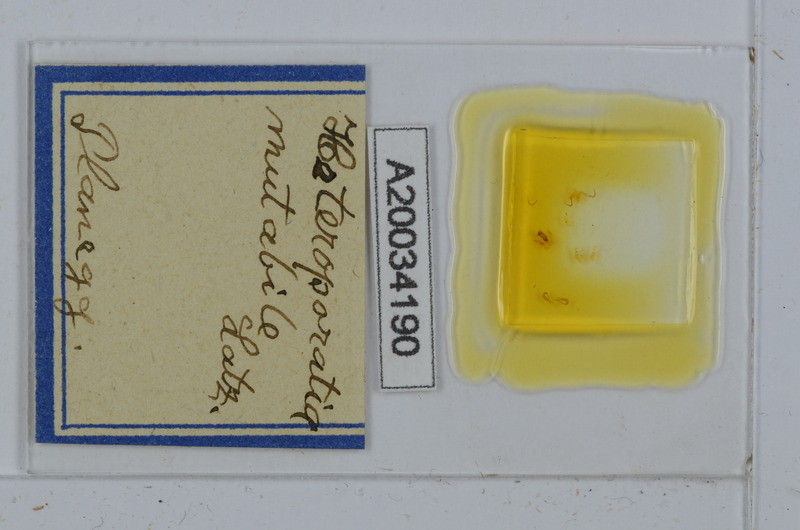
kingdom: Animalia
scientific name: Animalia
